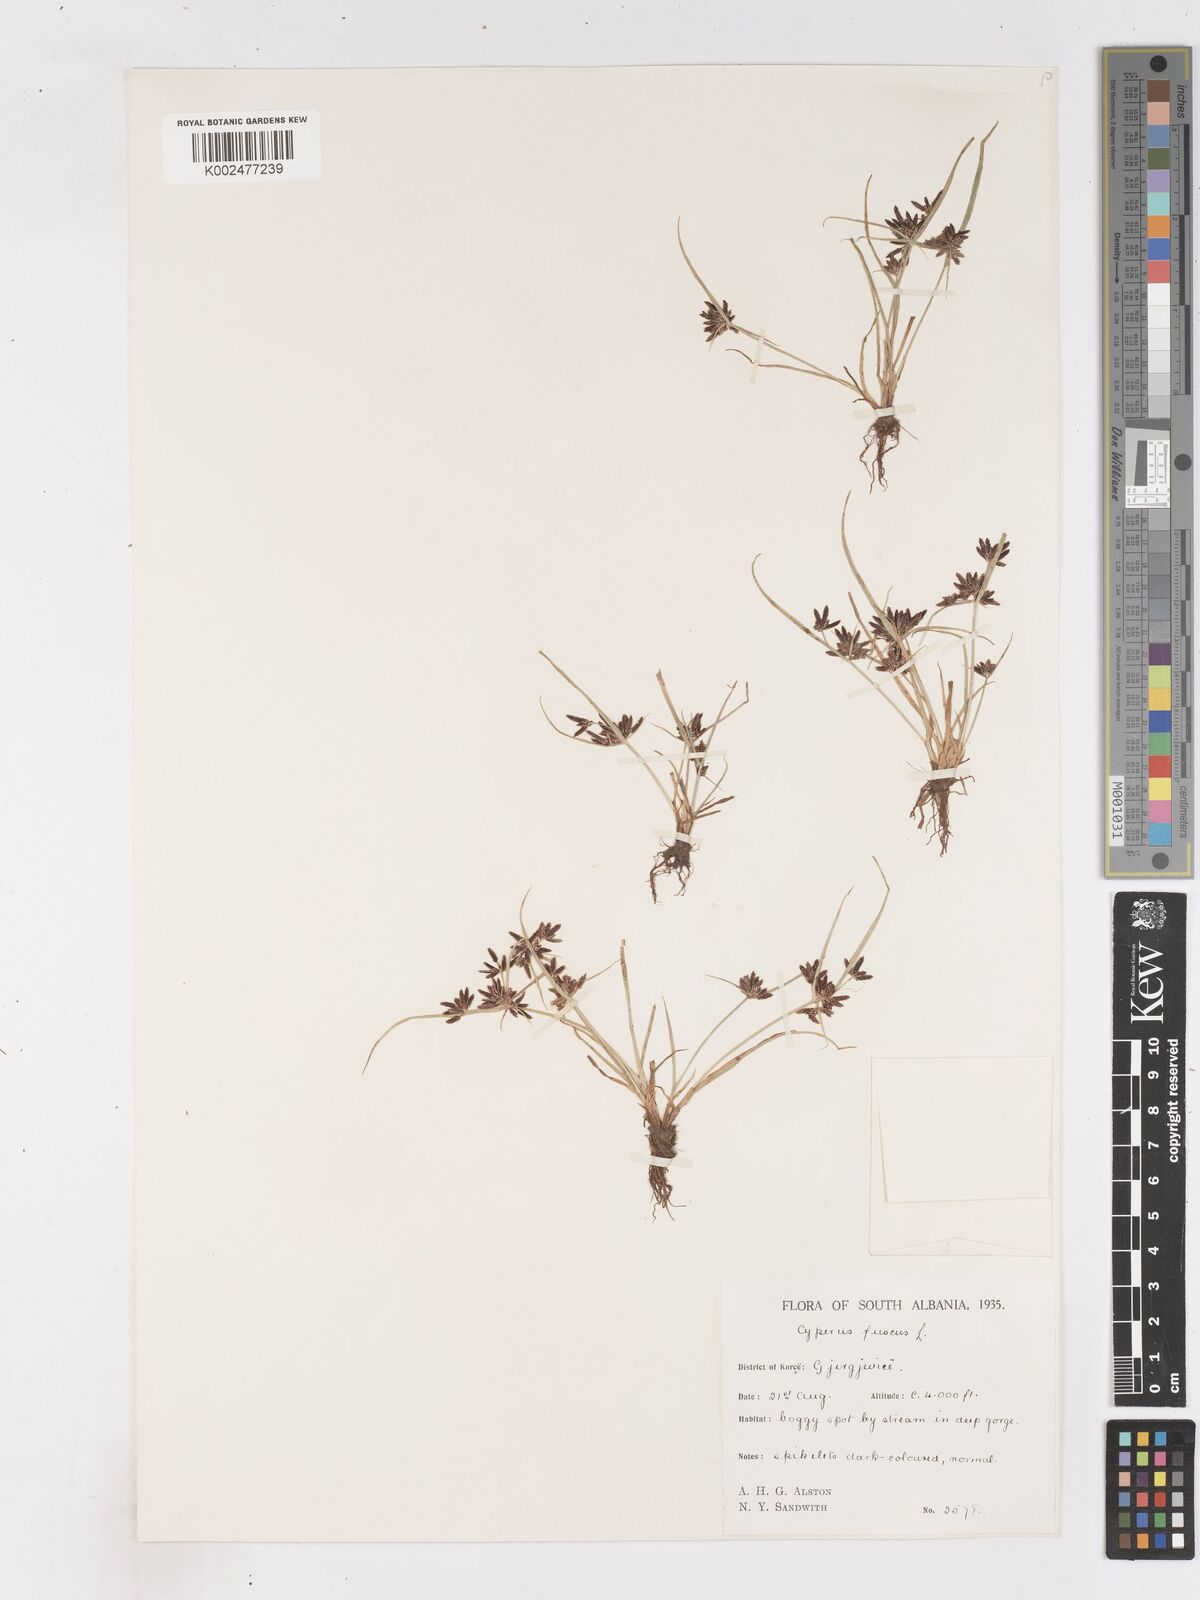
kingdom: Plantae
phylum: Tracheophyta
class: Liliopsida
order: Poales
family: Cyperaceae
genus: Cyperus
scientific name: Cyperus fuscus
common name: Brown galingale
